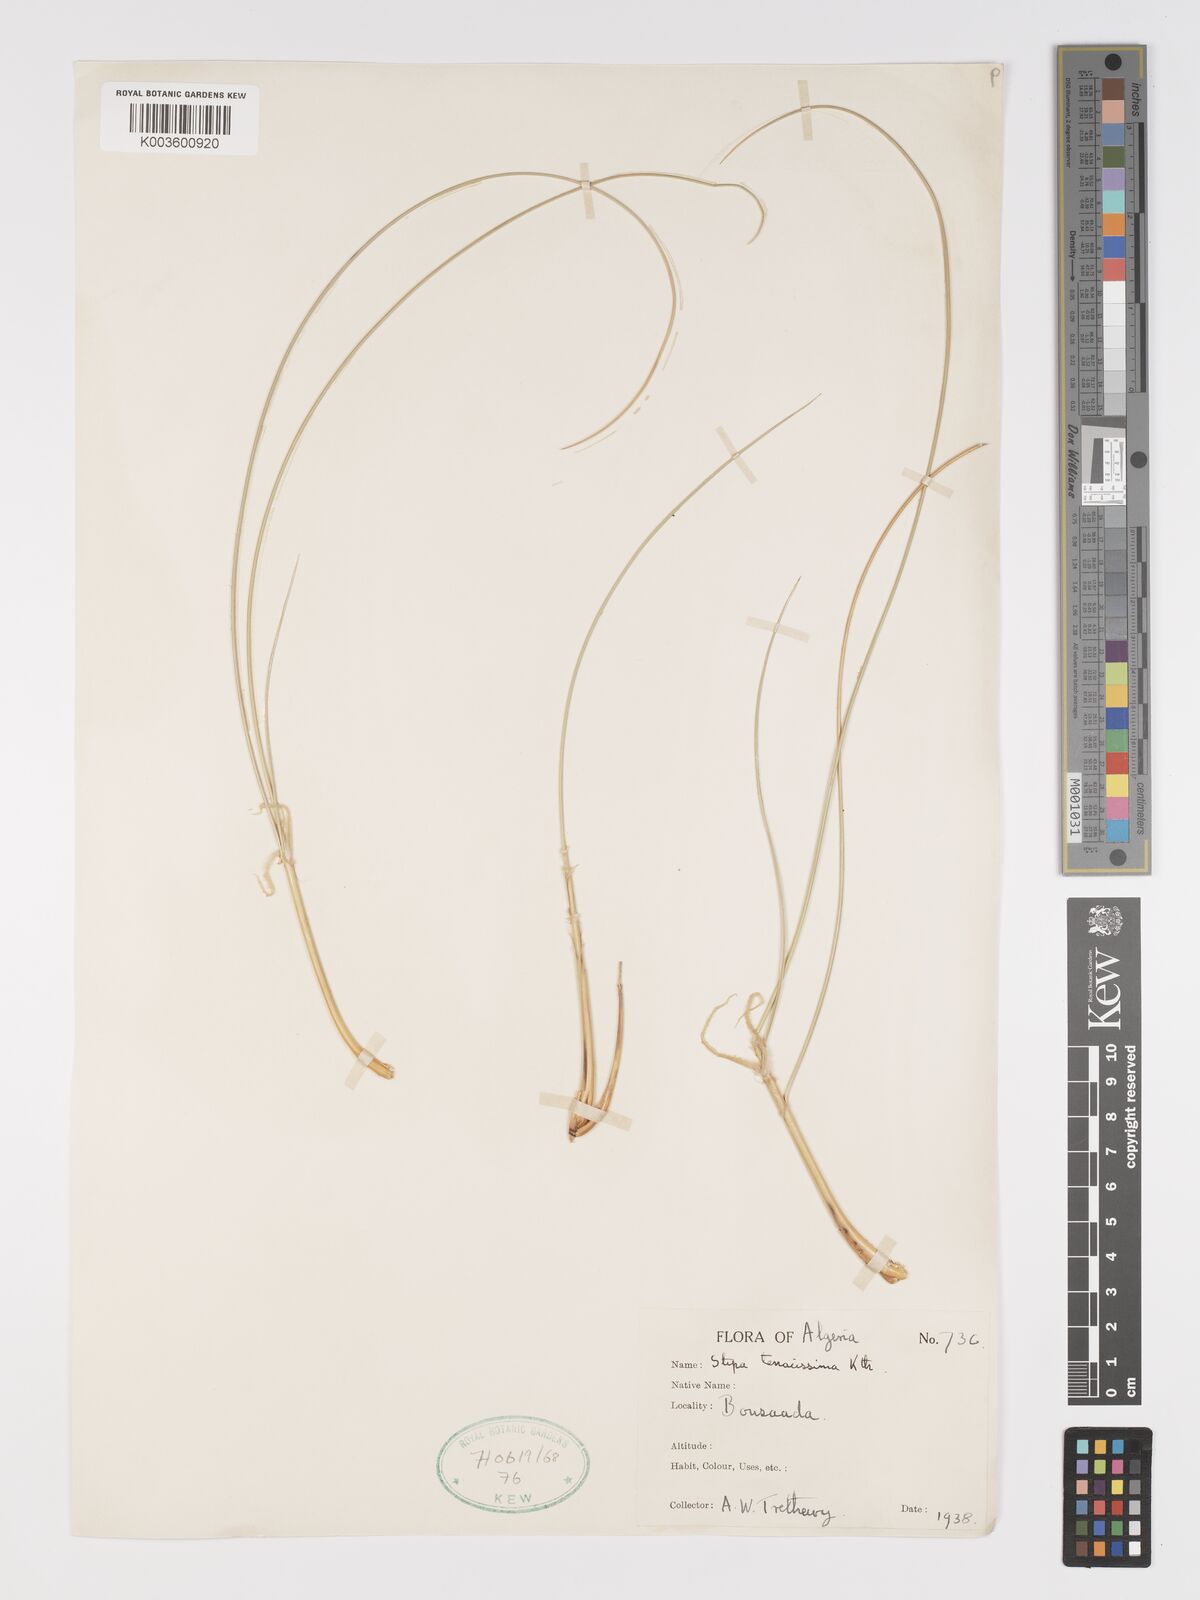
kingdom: Plantae
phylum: Tracheophyta
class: Liliopsida
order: Poales
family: Poaceae
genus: Macrochloa
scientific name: Macrochloa tenacissima
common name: Alfa grass
